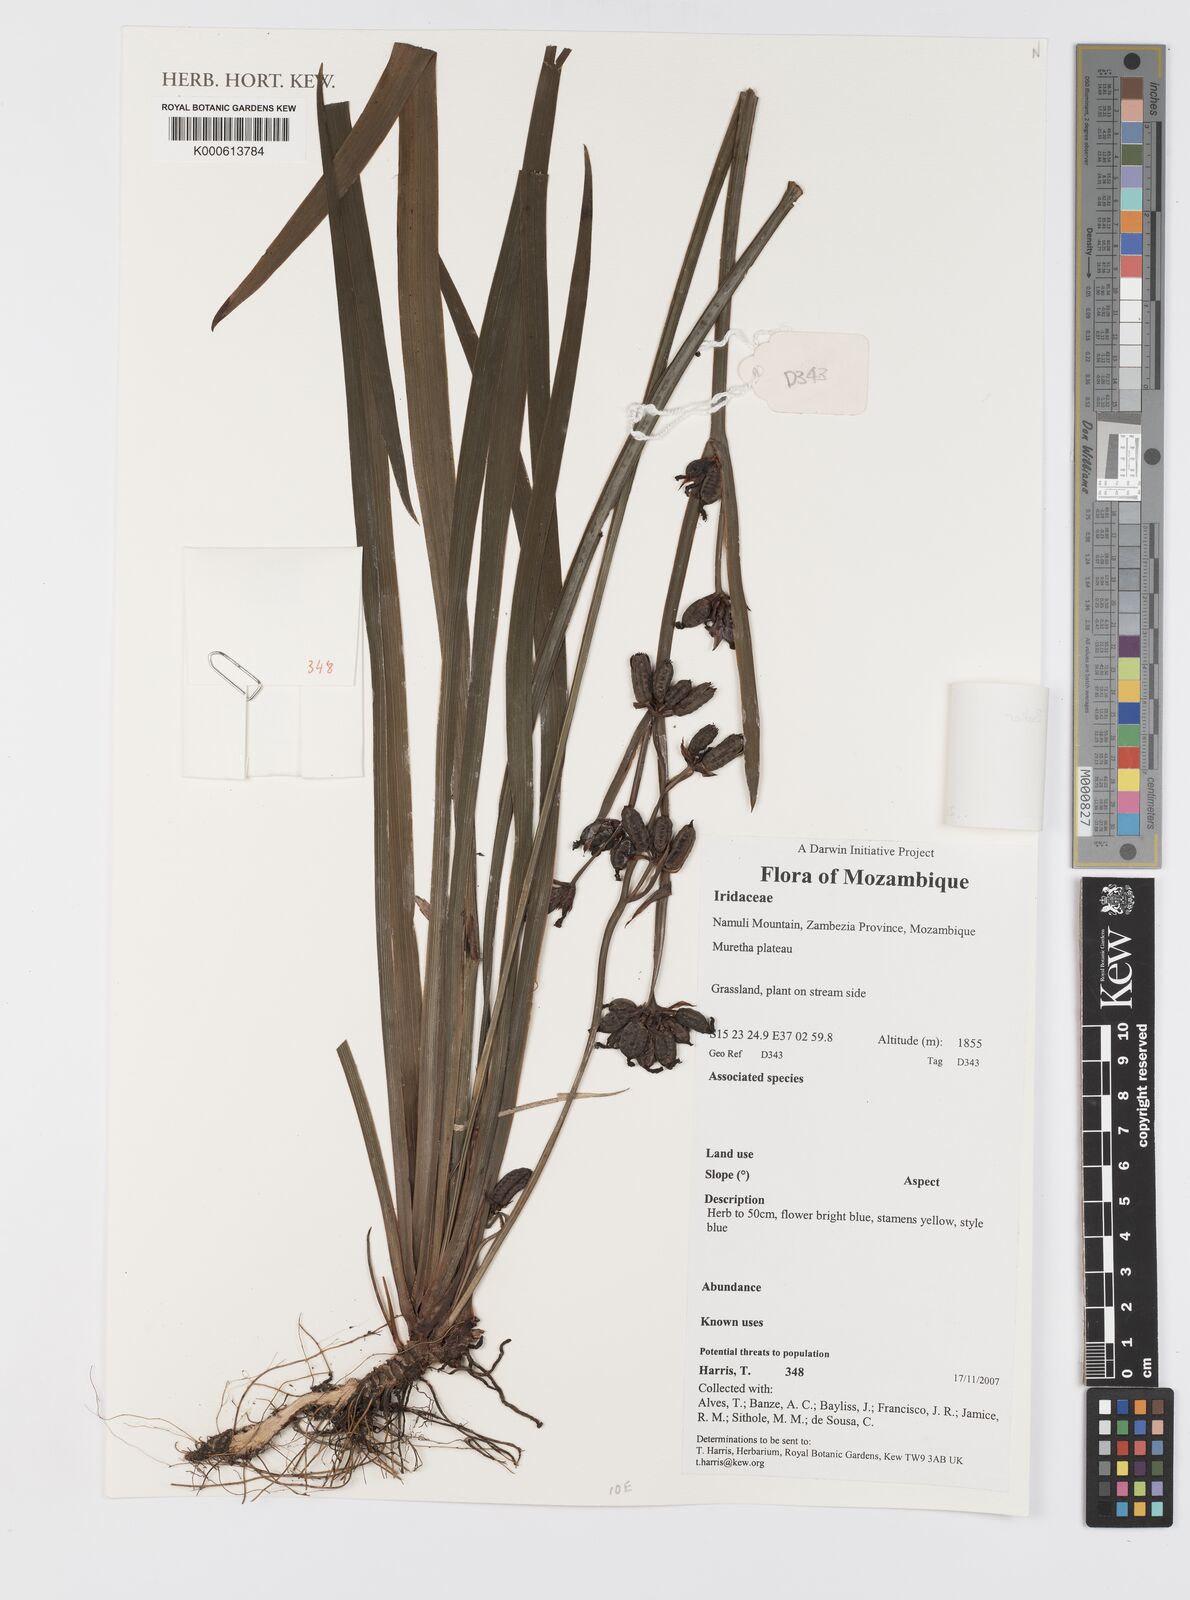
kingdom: Plantae
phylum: Tracheophyta
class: Liliopsida
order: Asparagales
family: Iridaceae
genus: Aristea
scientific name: Aristea ecklonii
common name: Blue corn-lily
